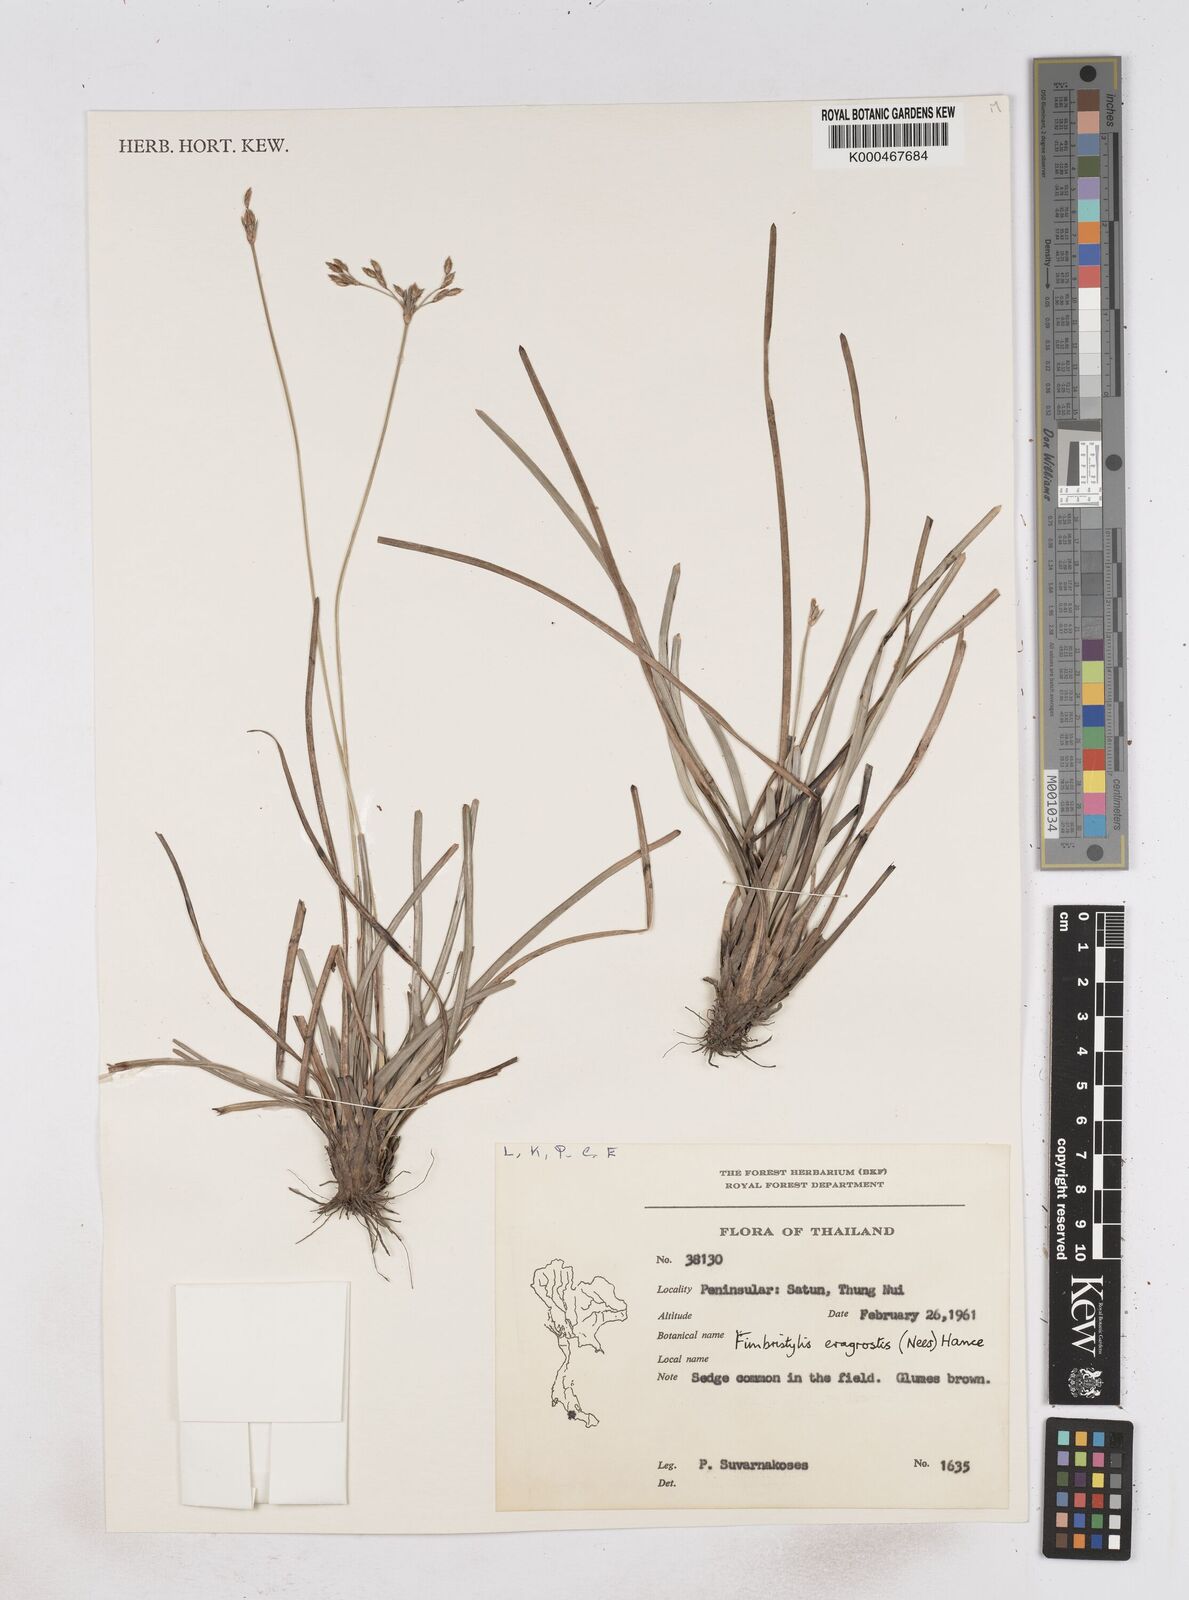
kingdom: Plantae
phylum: Tracheophyta
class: Liliopsida
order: Poales
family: Cyperaceae
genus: Fimbristylis
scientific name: Fimbristylis eragrostis
